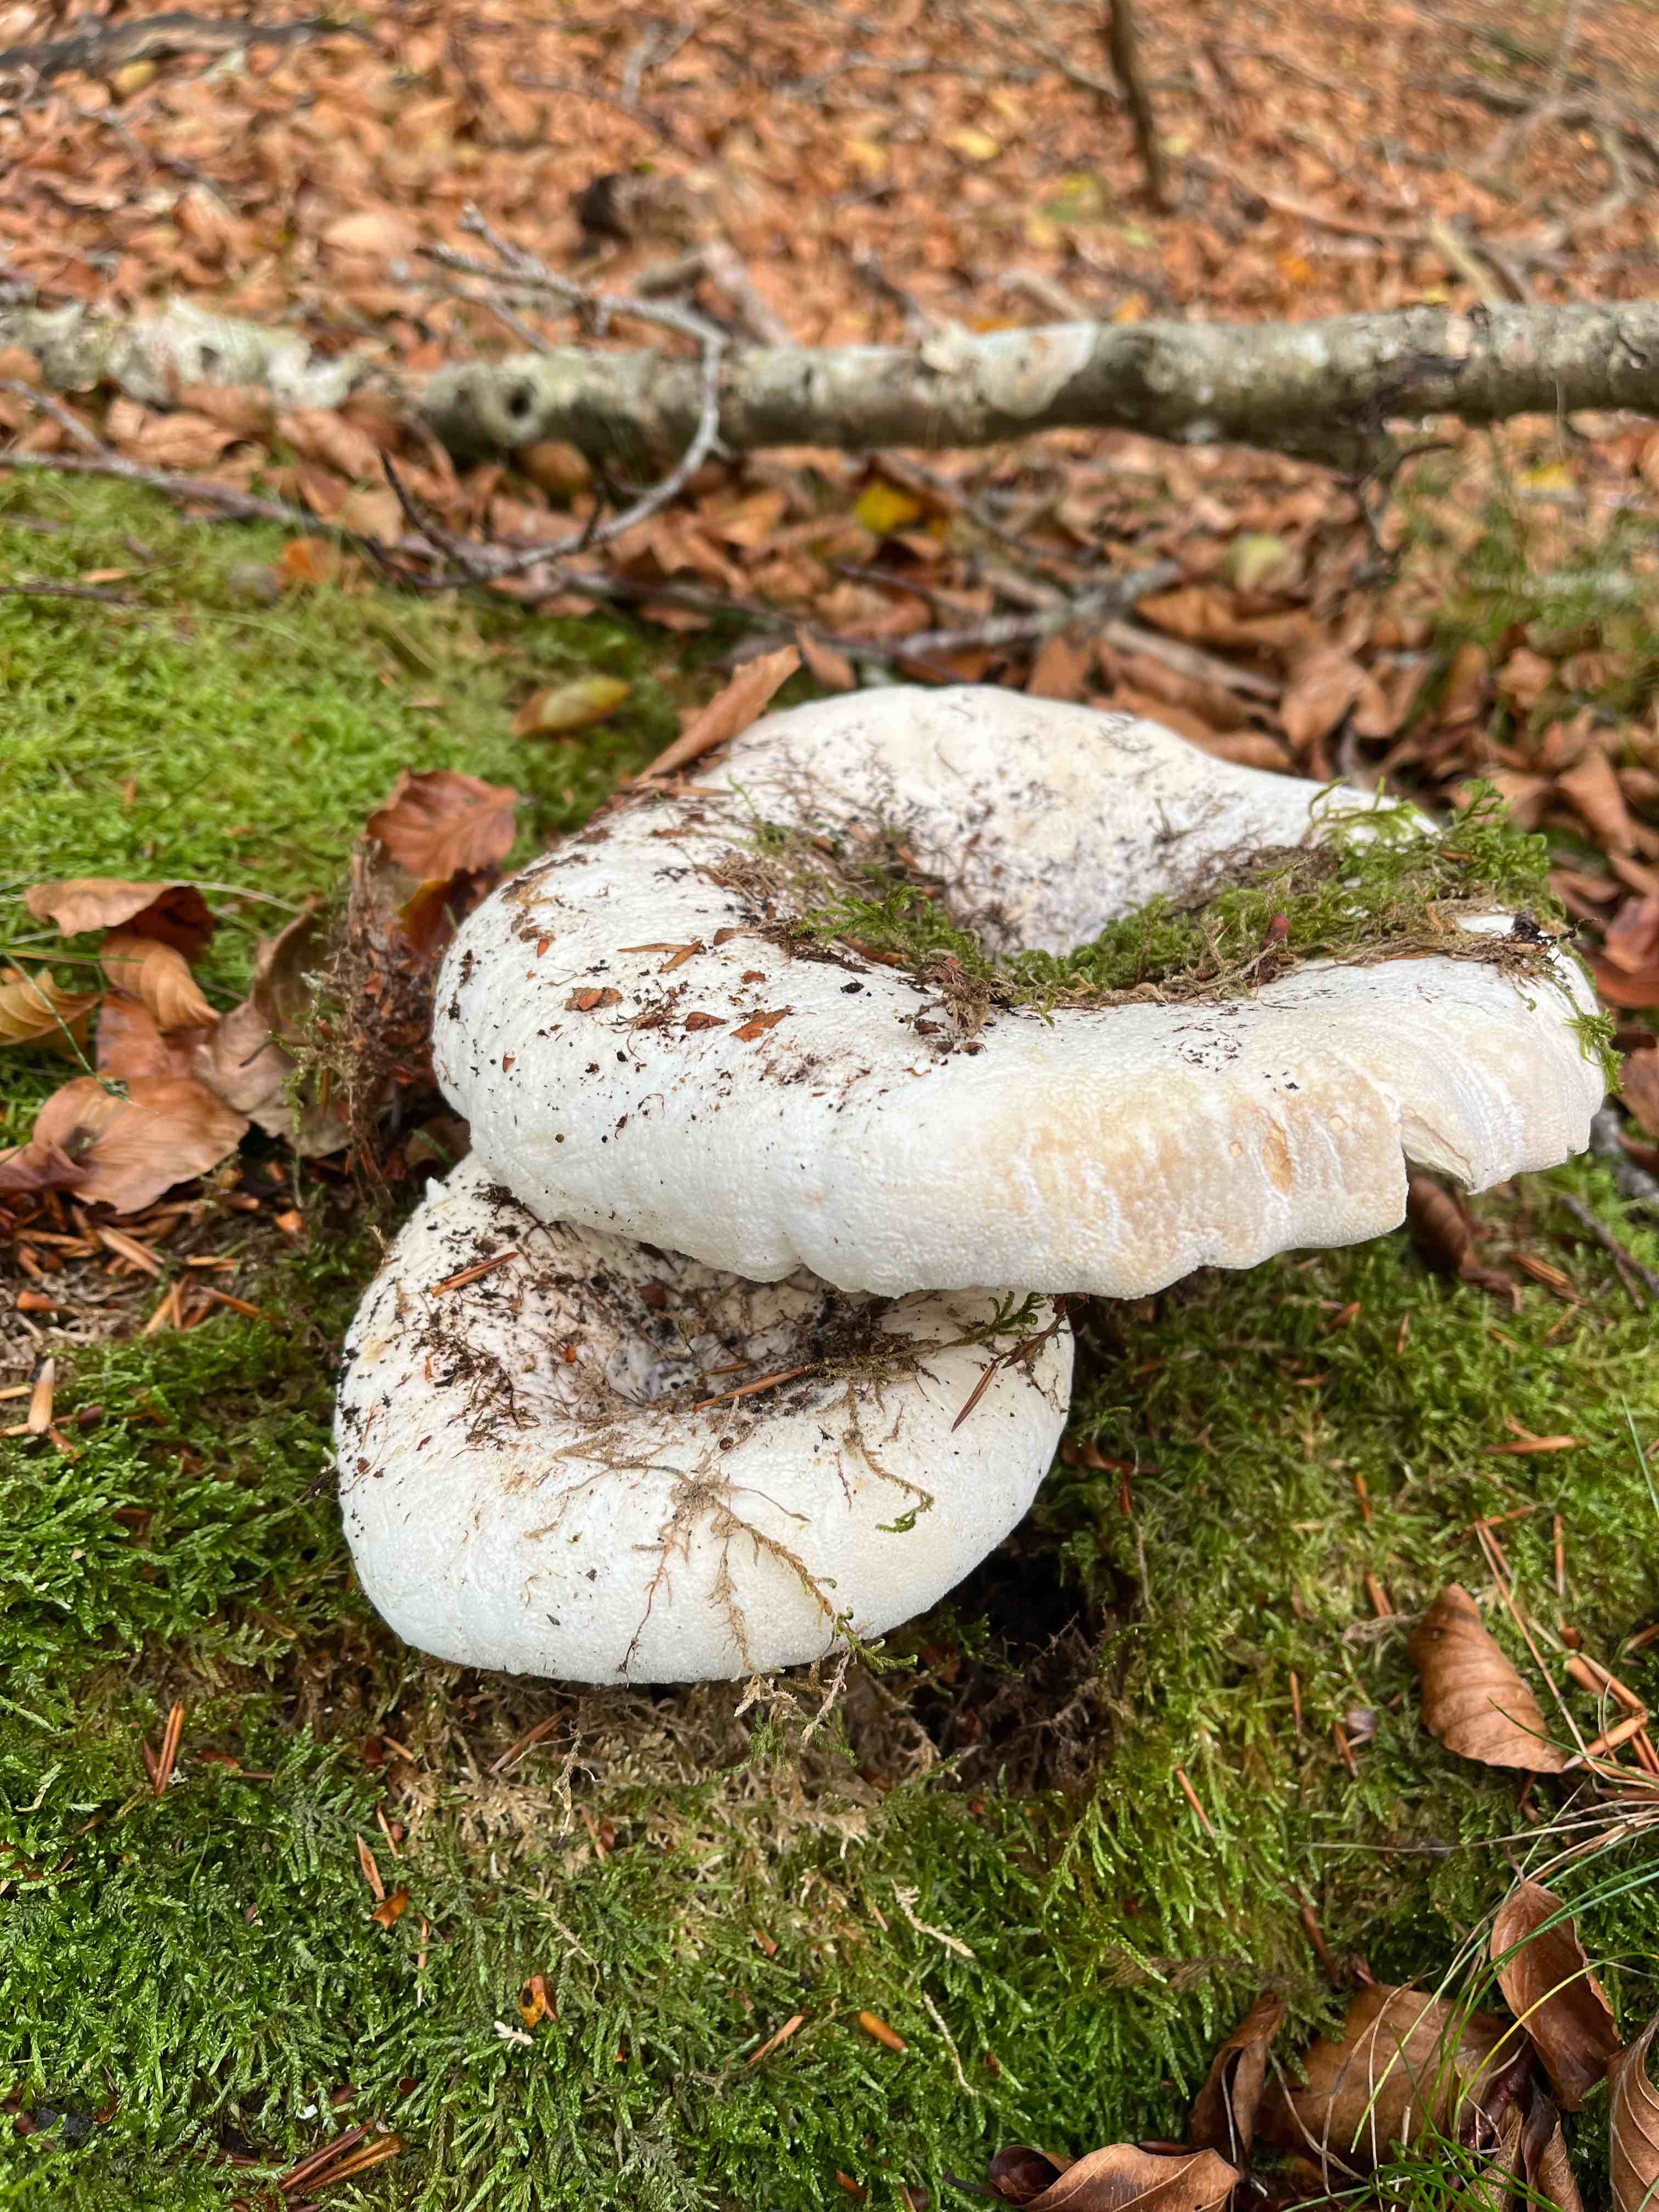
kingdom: Fungi
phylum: Basidiomycota
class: Agaricomycetes
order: Russulales
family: Russulaceae
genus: Lactifluus
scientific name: Lactifluus
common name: mælkehat
